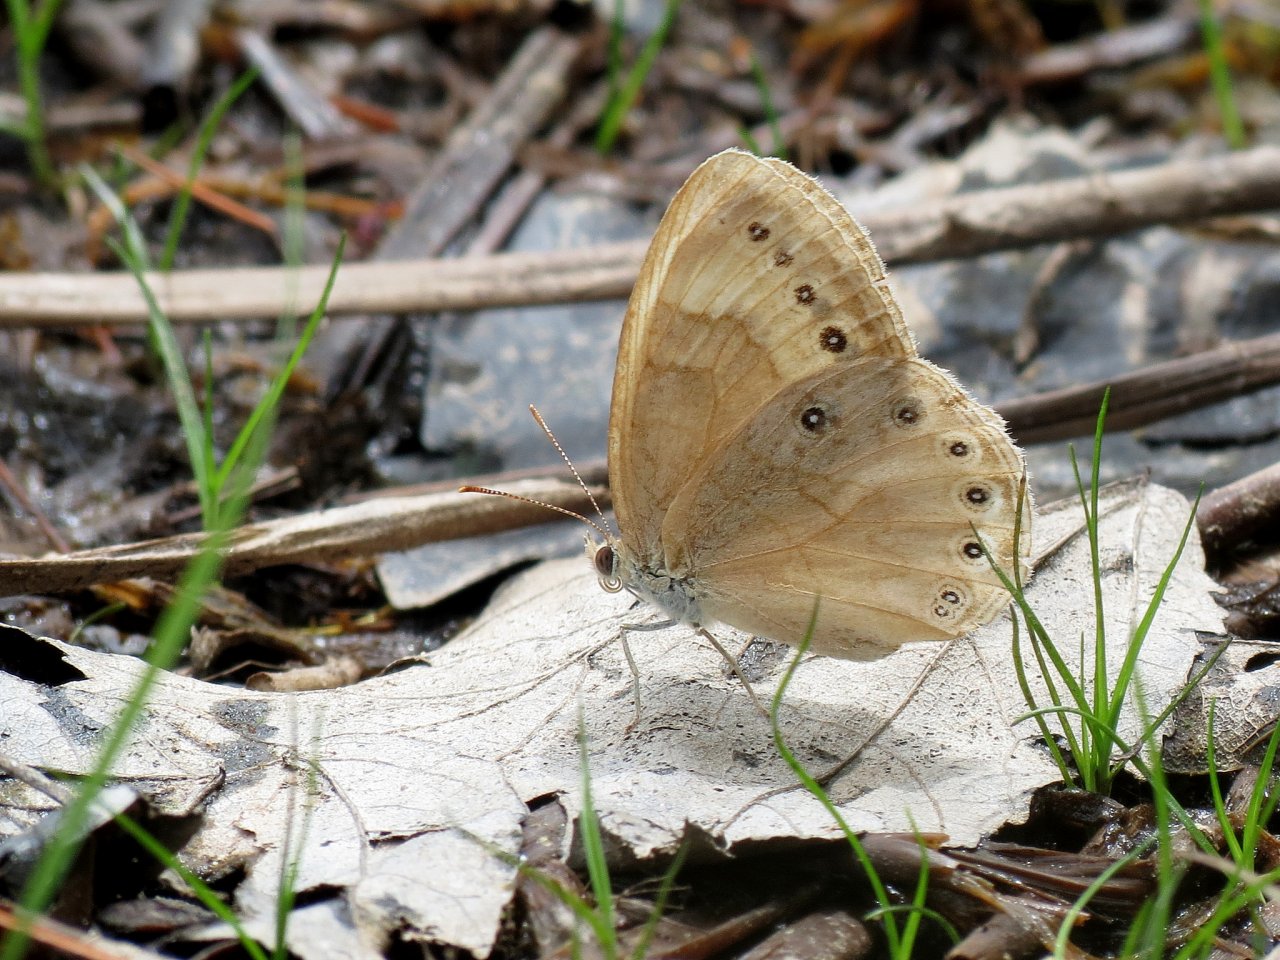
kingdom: Animalia
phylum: Arthropoda
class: Insecta
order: Lepidoptera
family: Nymphalidae
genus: Lethe
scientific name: Lethe eurydice
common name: Eyed Brown
